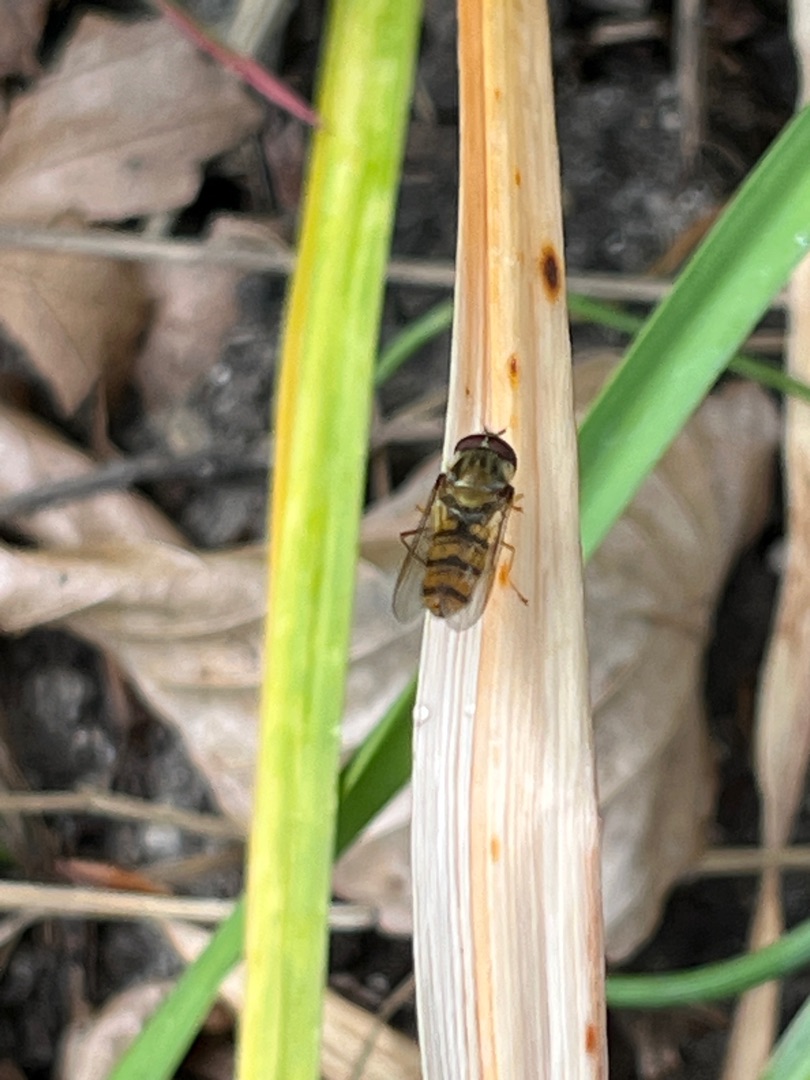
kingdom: Animalia
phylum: Arthropoda
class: Insecta
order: Diptera
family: Syrphidae
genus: Episyrphus
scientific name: Episyrphus balteatus
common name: Dobbeltbåndet svirreflue
